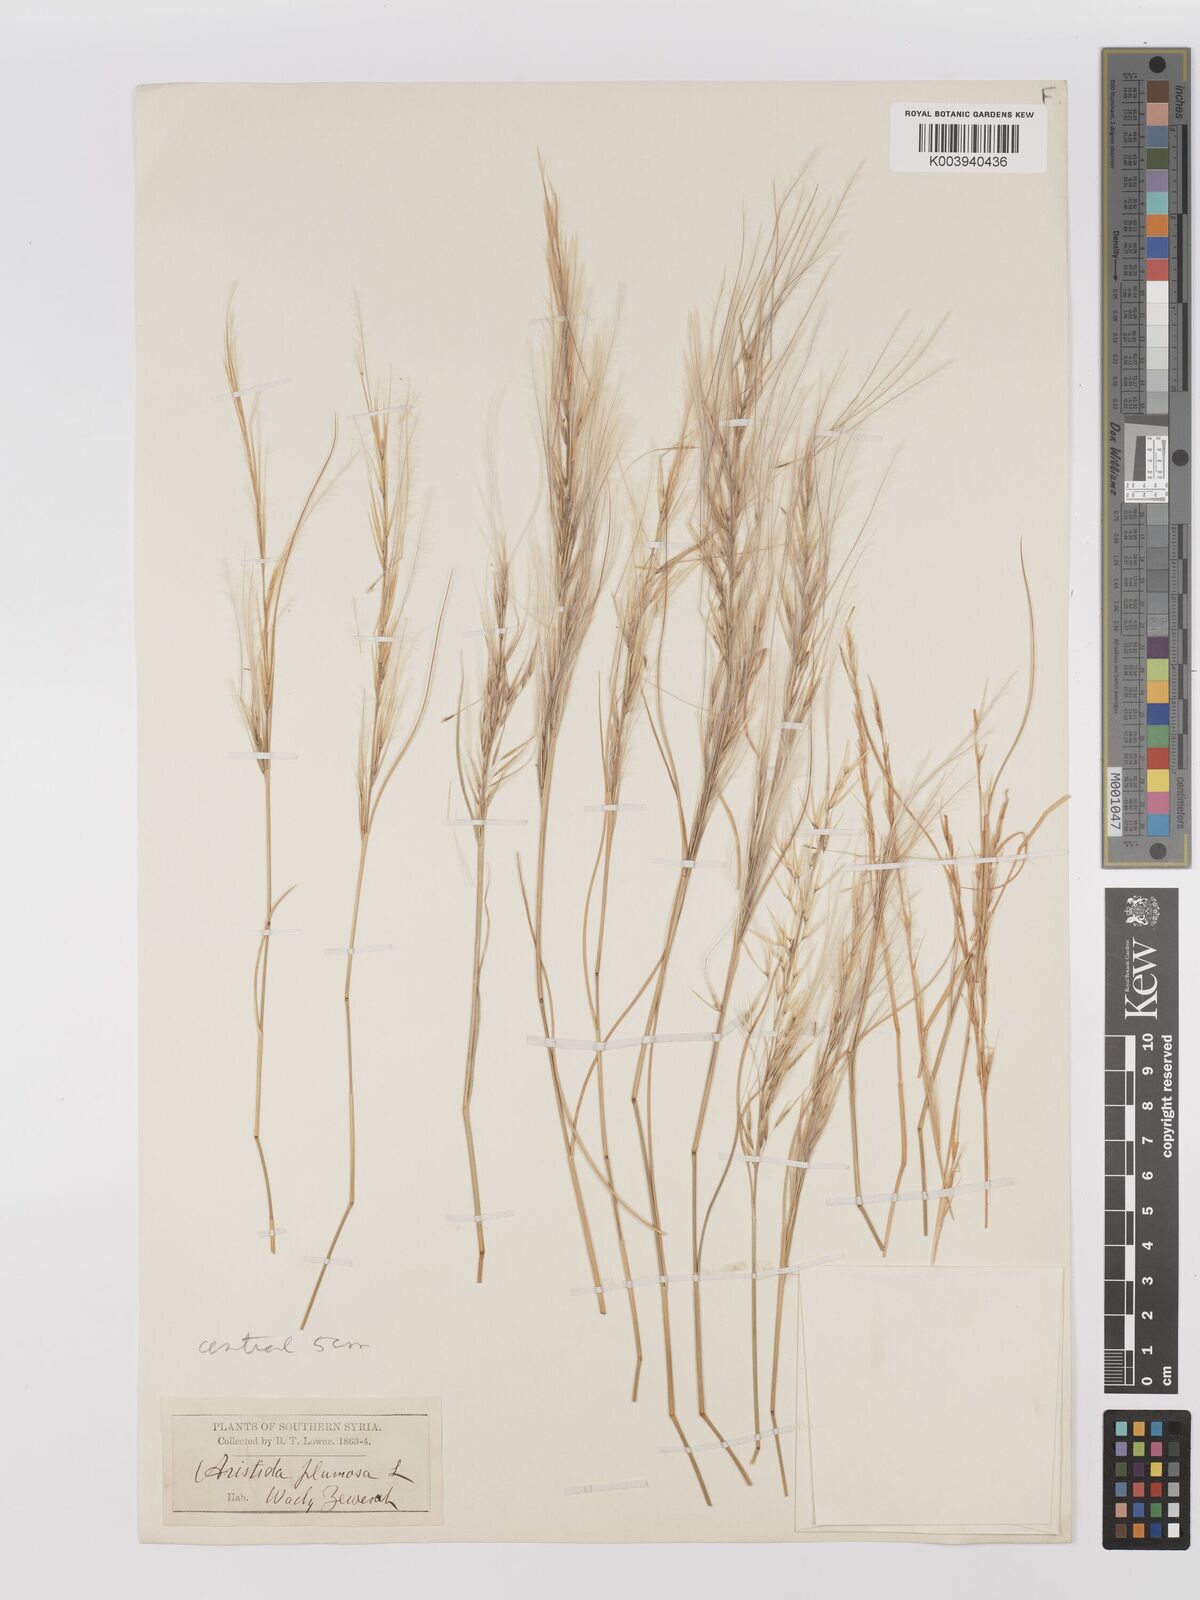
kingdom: Plantae
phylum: Tracheophyta
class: Liliopsida
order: Poales
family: Poaceae
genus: Stipagrostis
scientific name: Stipagrostis plumosa
